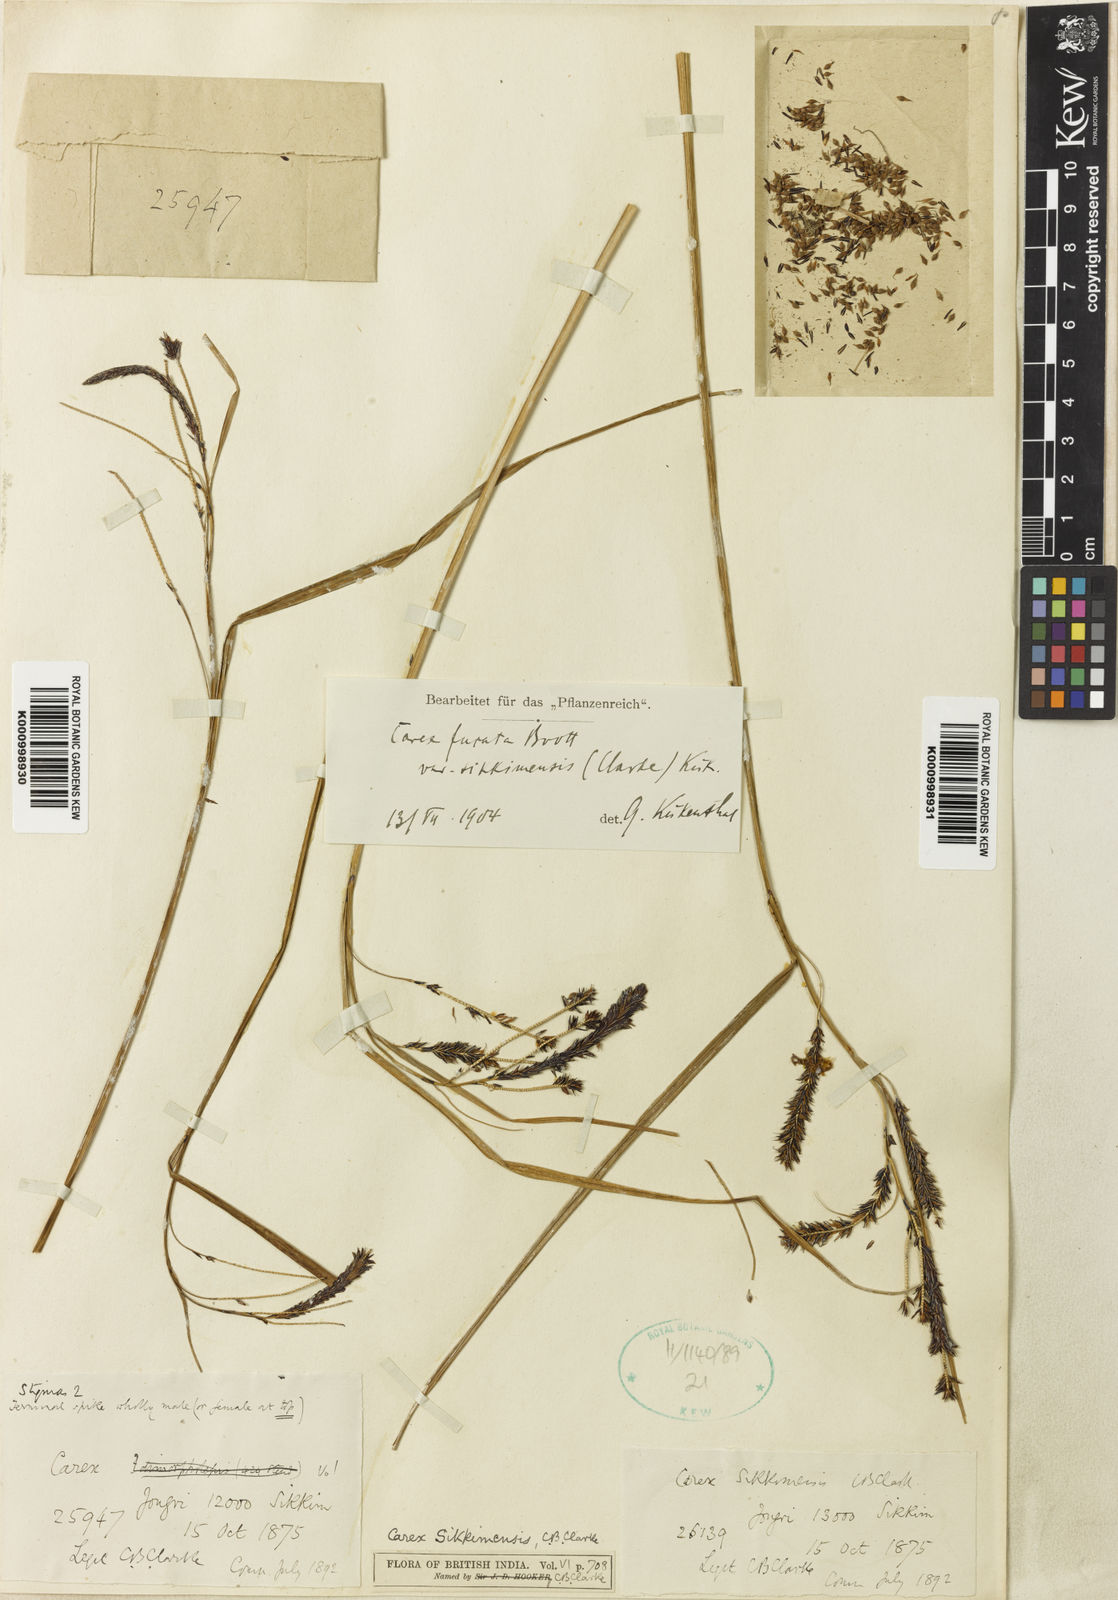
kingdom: Plantae
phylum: Tracheophyta
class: Liliopsida
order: Poales
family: Cyperaceae
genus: Carex
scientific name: Carex fucata
